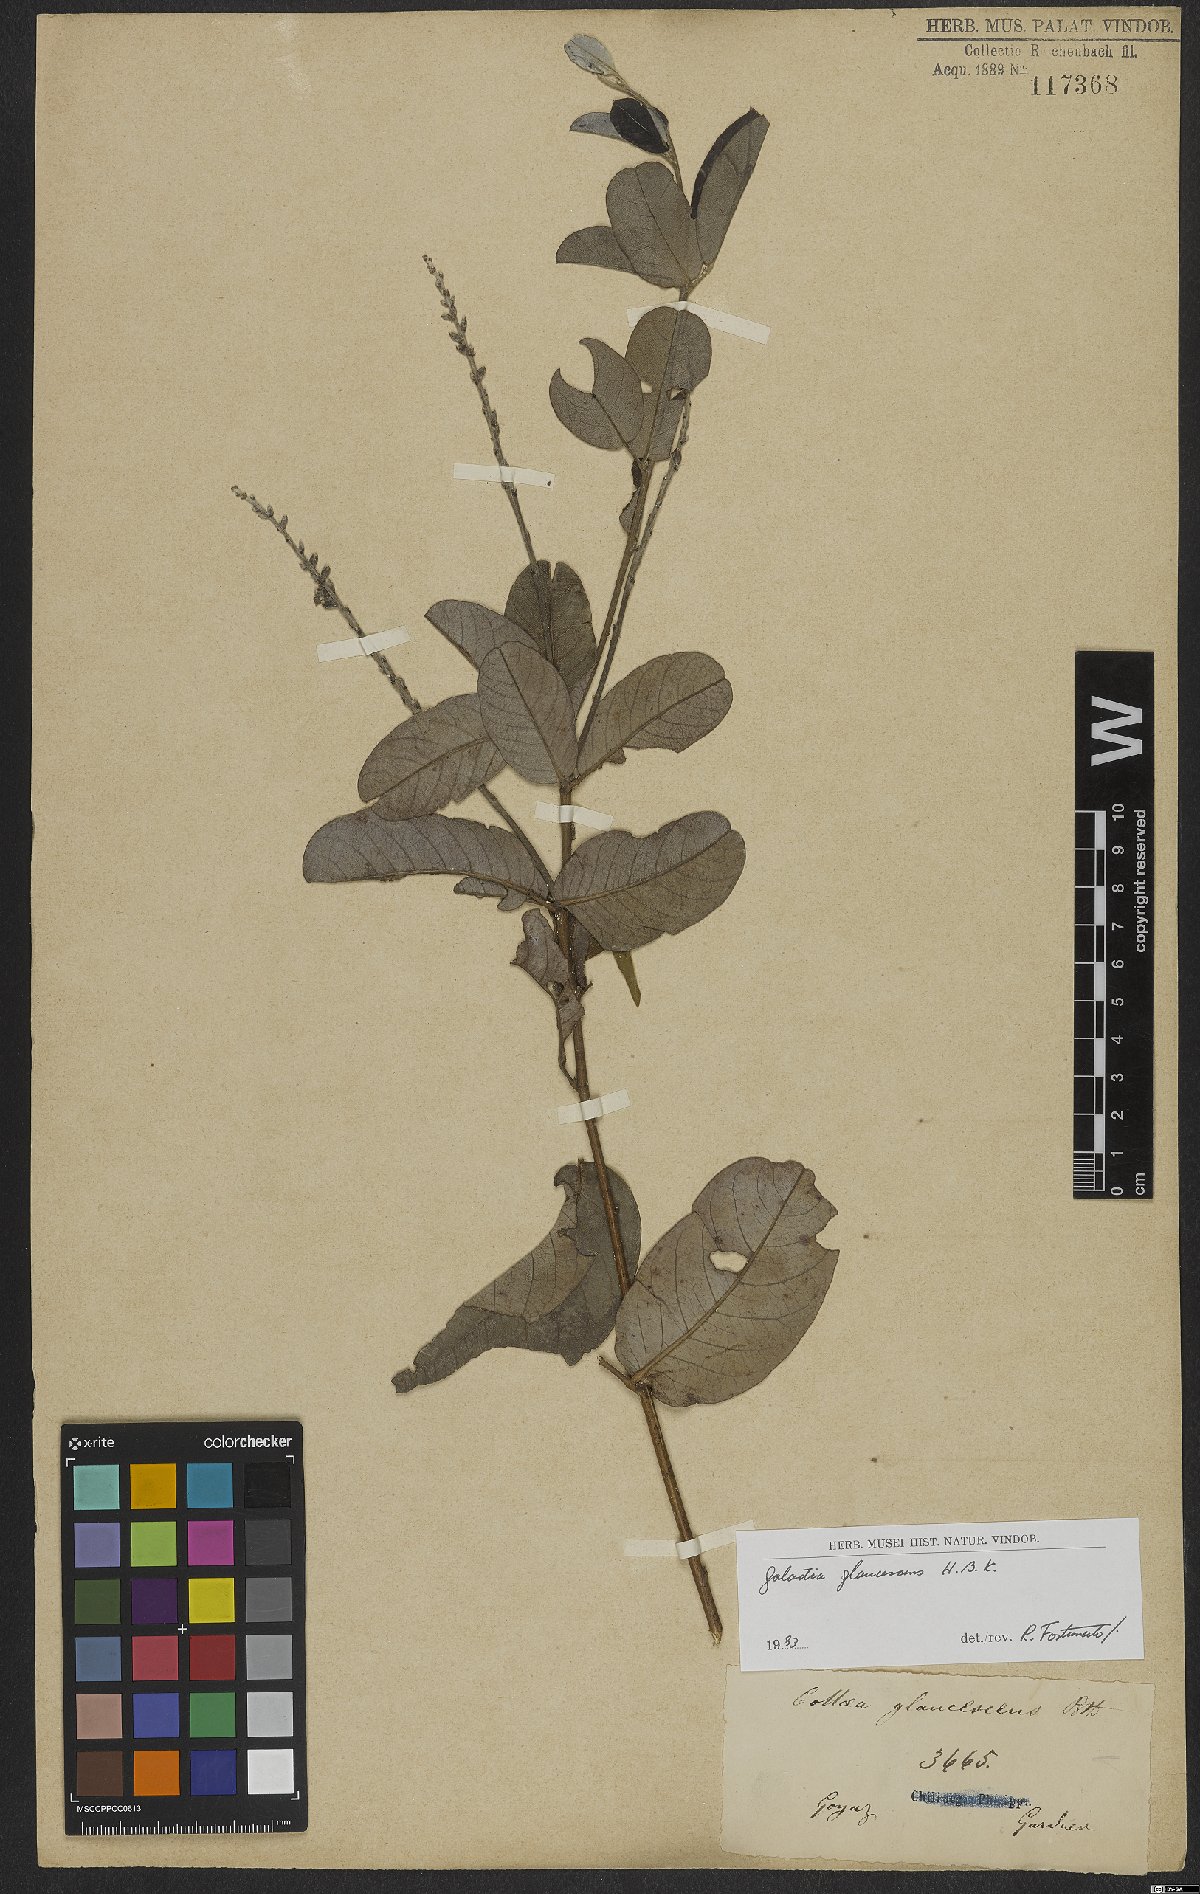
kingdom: Plantae
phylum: Tracheophyta
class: Magnoliopsida
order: Fabales
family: Fabaceae
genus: Galactia
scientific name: Galactia glaucescens
